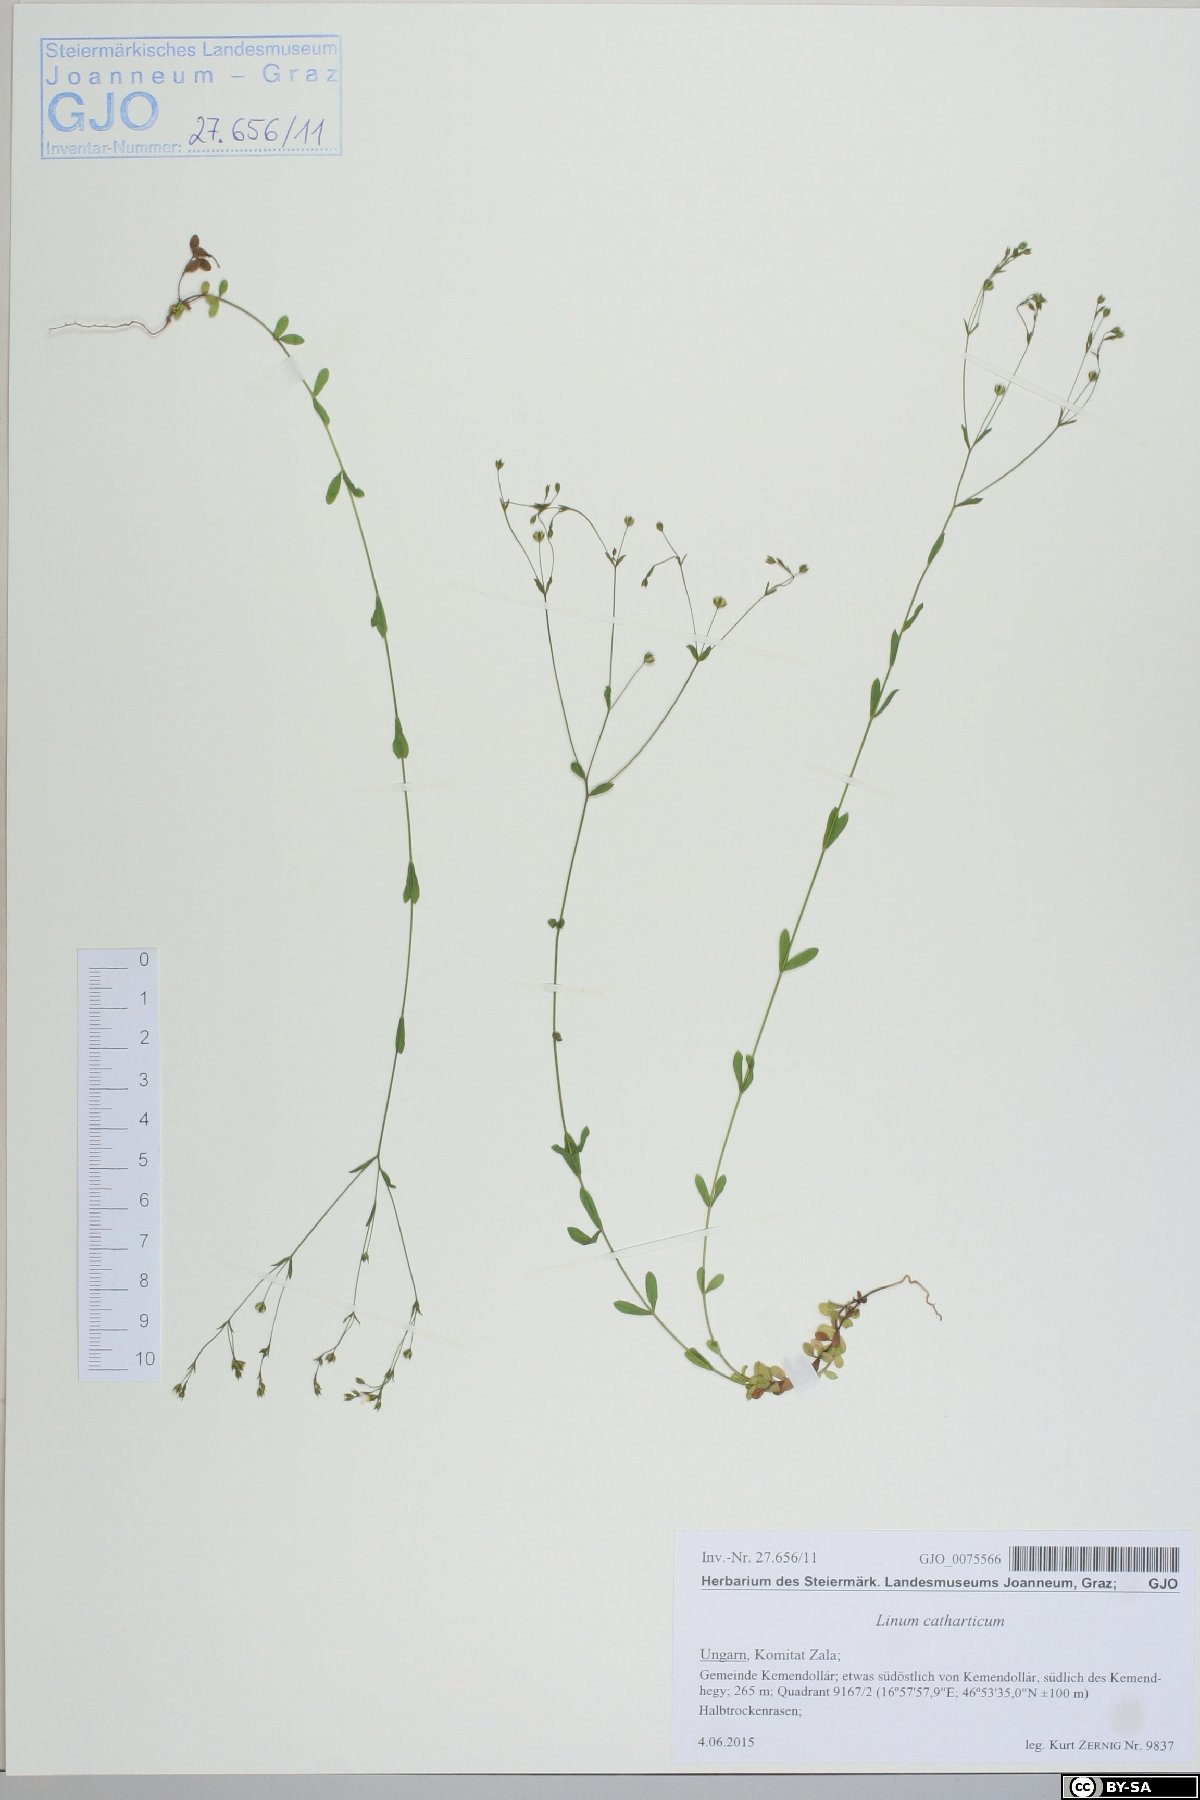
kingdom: Plantae
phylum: Tracheophyta
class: Magnoliopsida
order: Malpighiales
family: Linaceae
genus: Linum
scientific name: Linum catharticum
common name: Fairy flax
